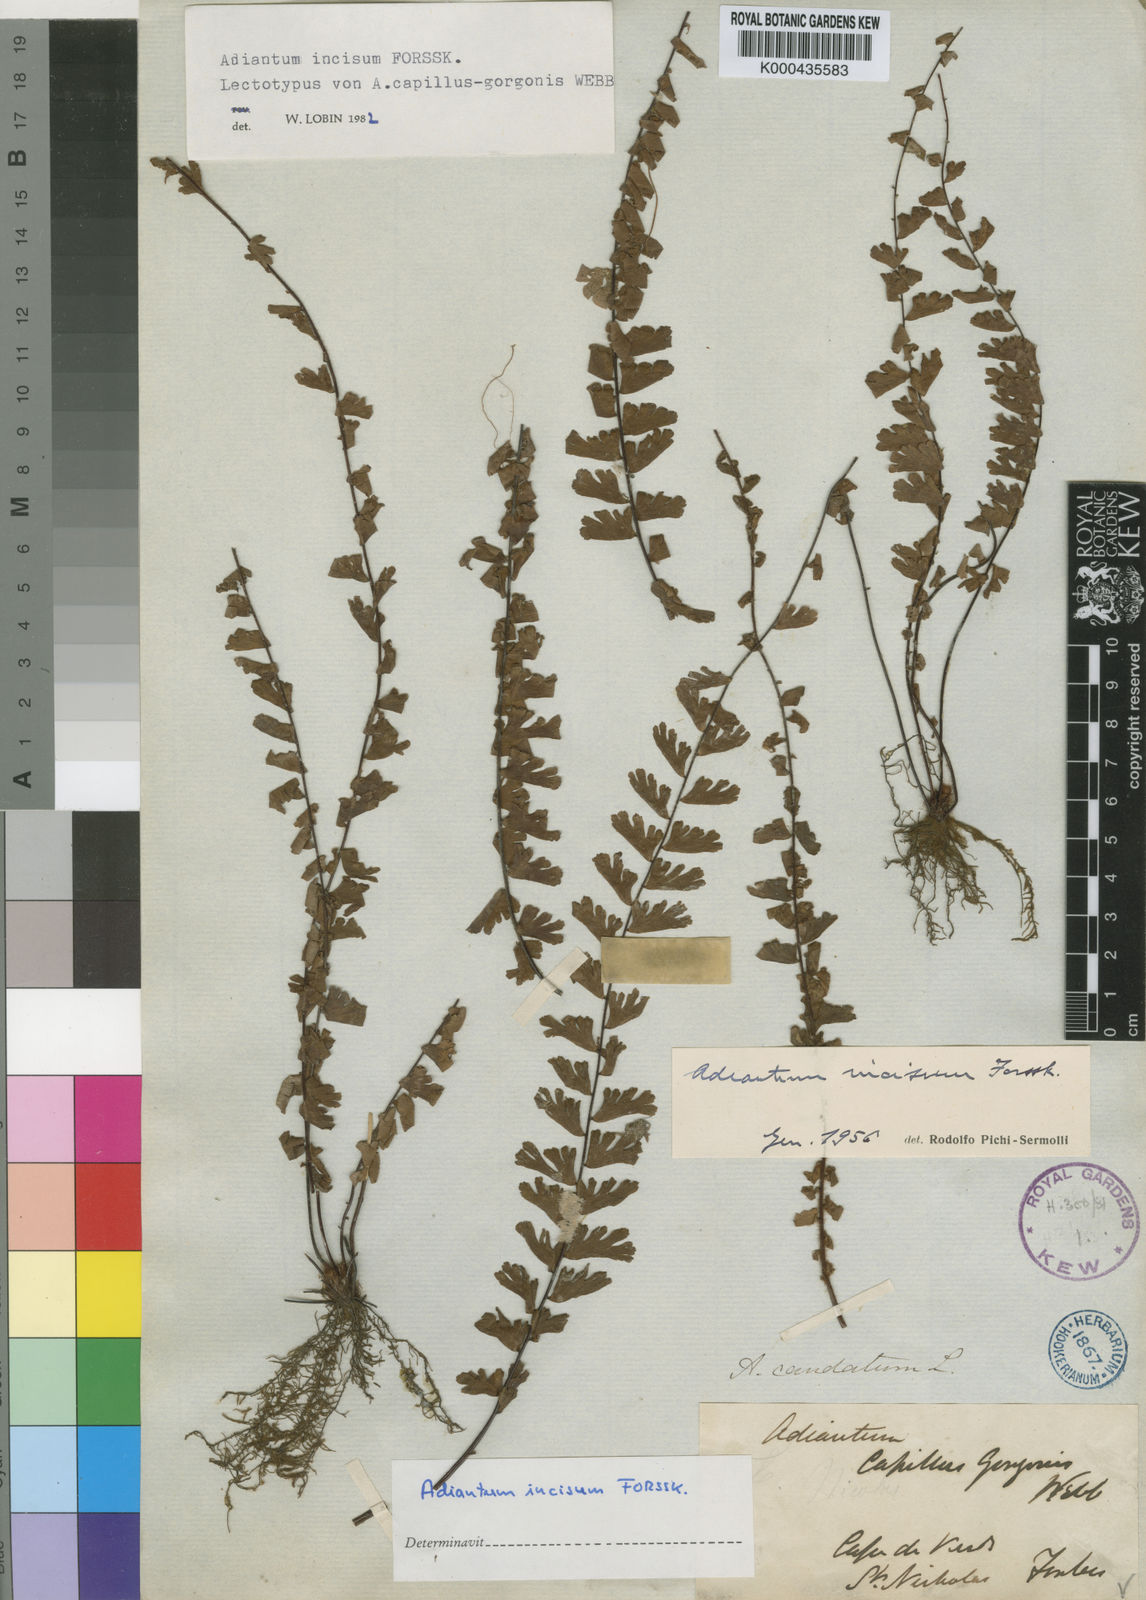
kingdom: Plantae
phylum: Tracheophyta
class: Polypodiopsida
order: Polypodiales
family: Pteridaceae
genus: Adiantum
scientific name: Adiantum incisum
